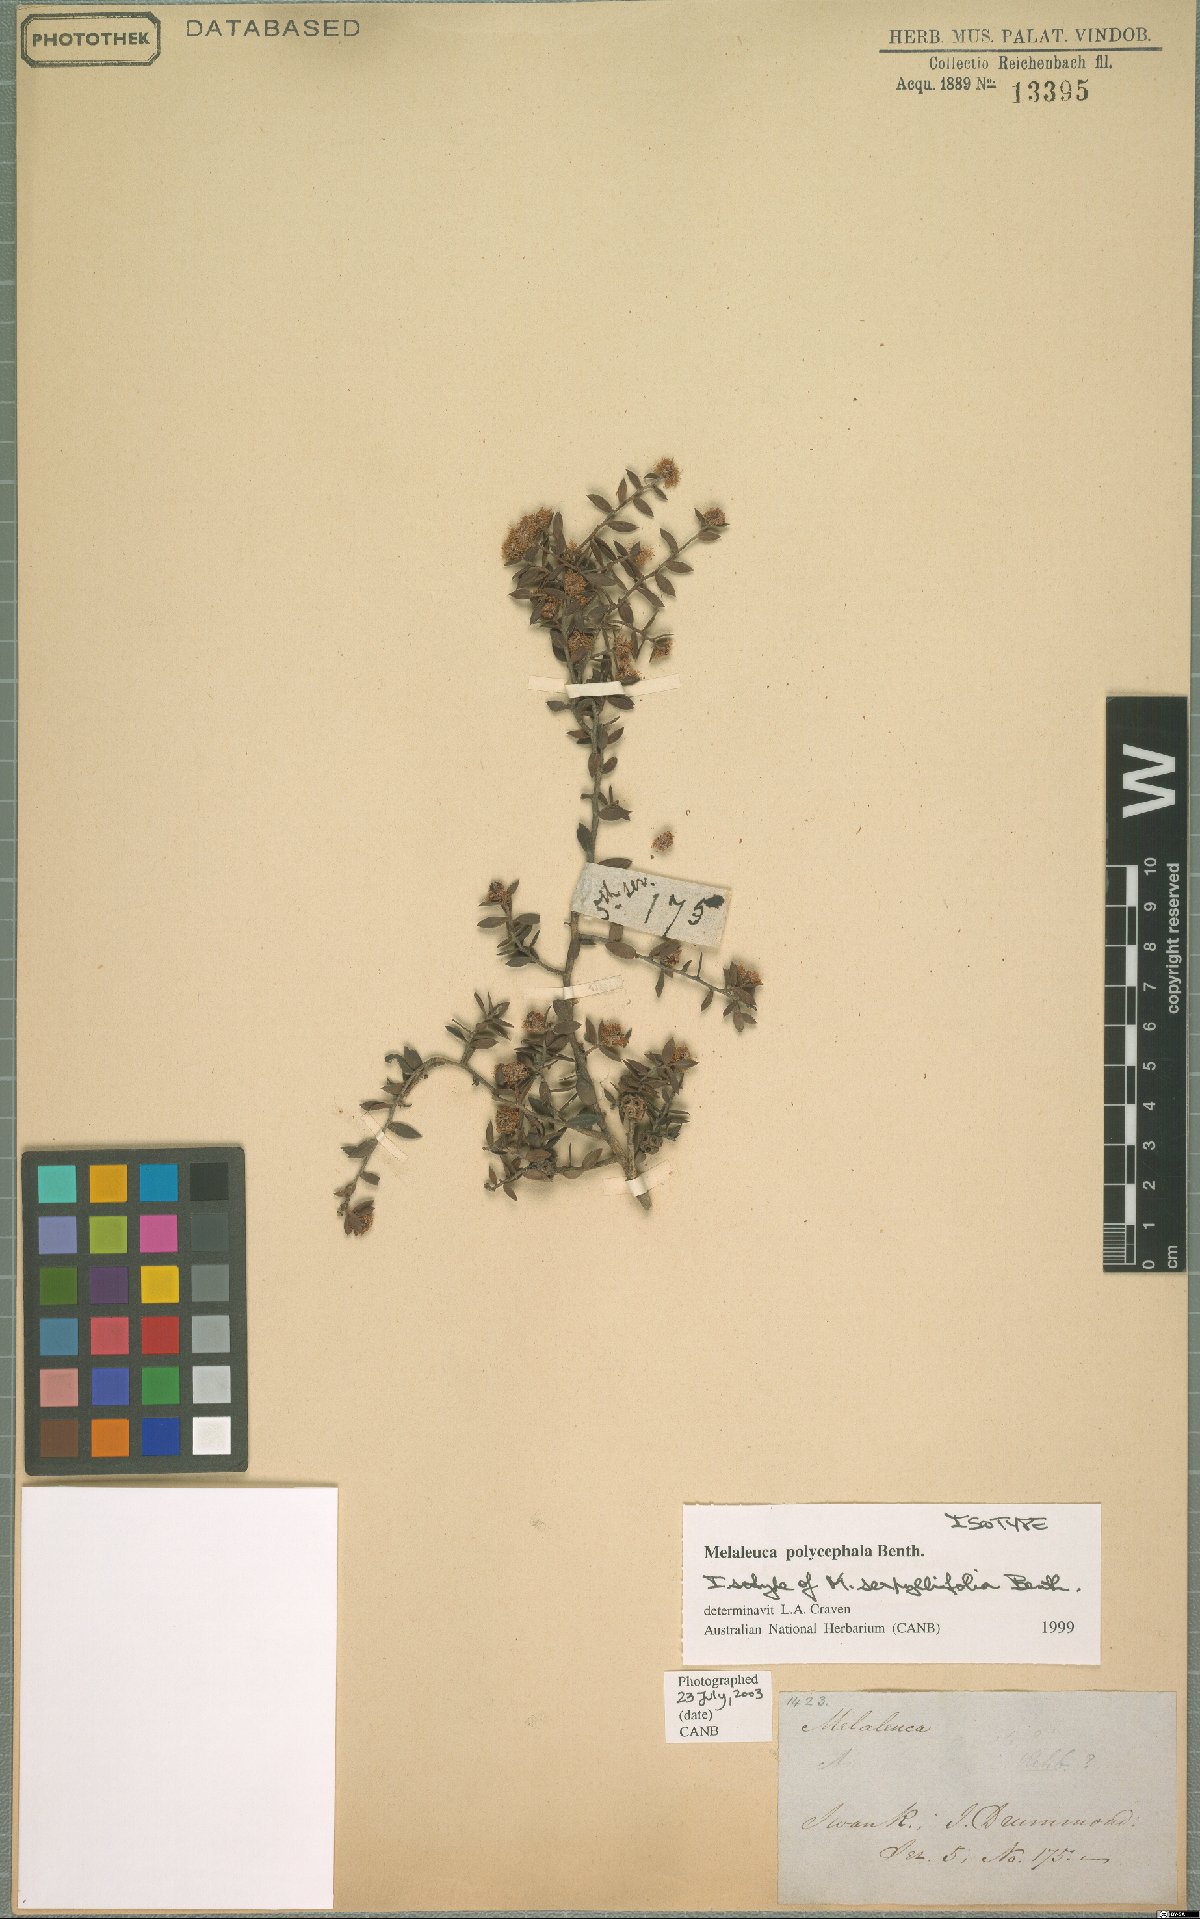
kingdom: Plantae
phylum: Tracheophyta
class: Magnoliopsida
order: Myrtales
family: Myrtaceae
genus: Melaleuca
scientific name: Melaleuca polycephala
